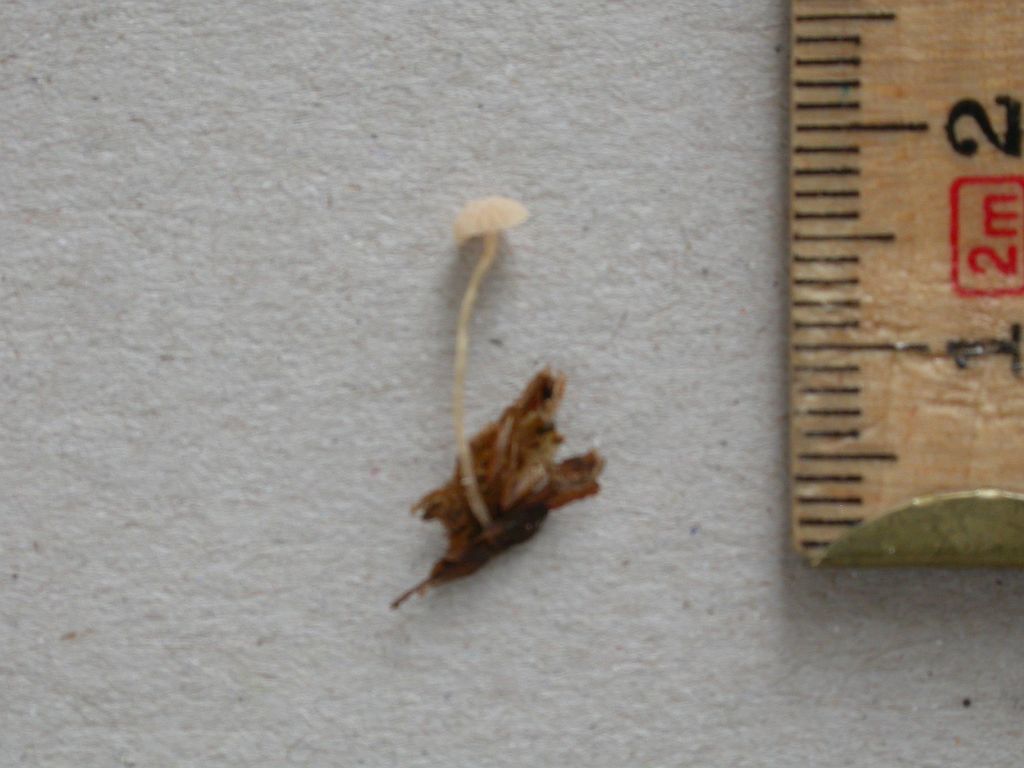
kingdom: Fungi
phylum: Basidiomycota
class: Agaricomycetes
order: Agaricales
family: Tubariaceae
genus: Flammulaster
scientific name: Flammulaster carpophilus
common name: blegrosa grynskælhat
